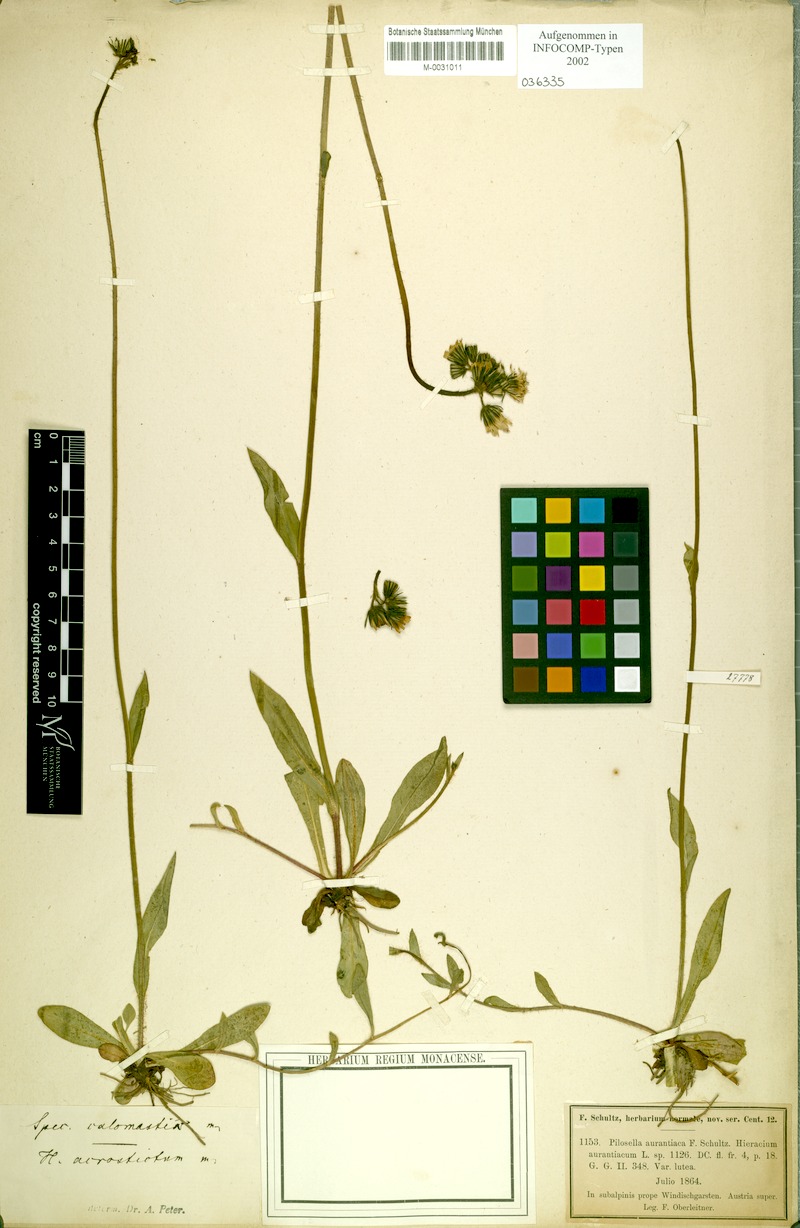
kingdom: Plantae
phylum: Tracheophyta
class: Magnoliopsida
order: Asterales
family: Asteraceae
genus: Pilosella
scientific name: Pilosella calomastix
